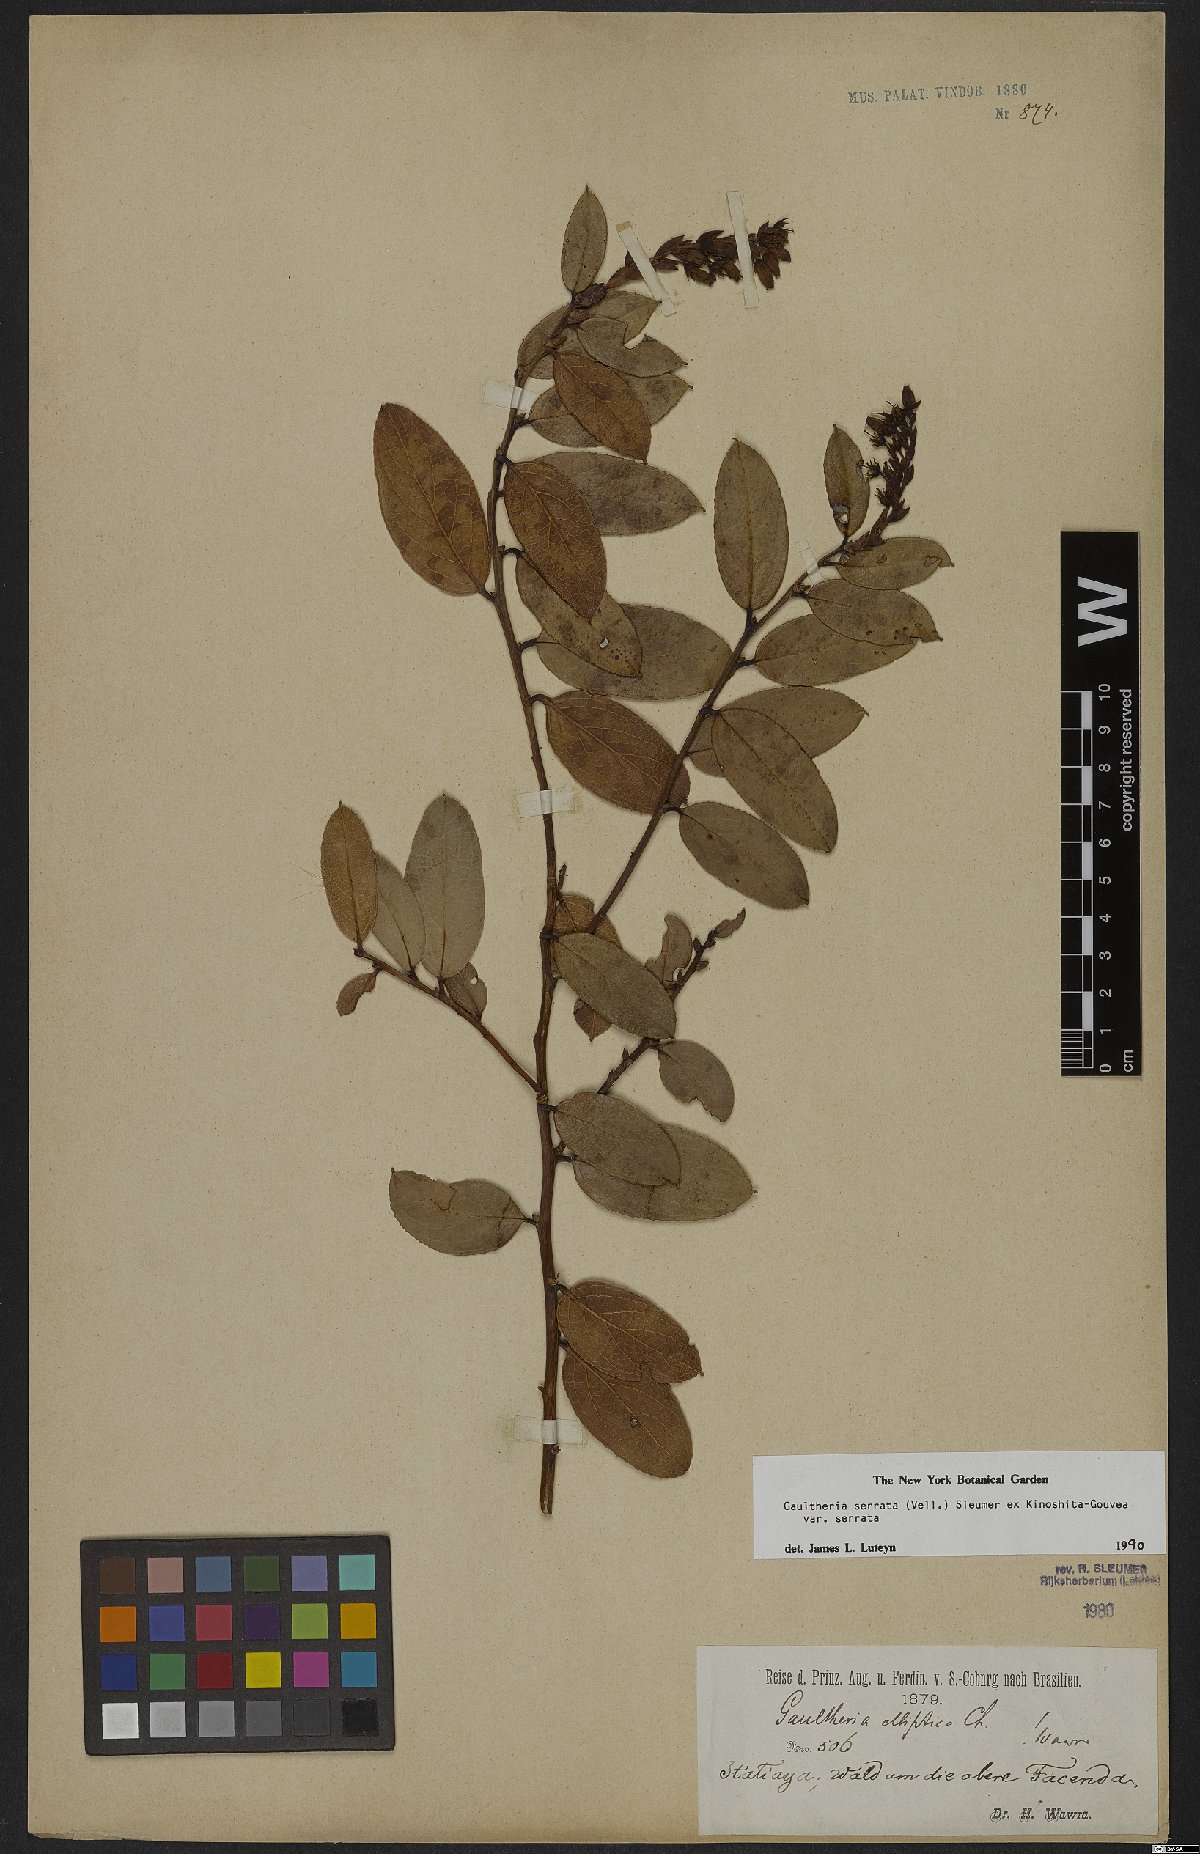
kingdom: Plantae
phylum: Tracheophyta
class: Magnoliopsida
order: Ericales
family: Ericaceae
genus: Gaultheria
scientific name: Gaultheria serrata
